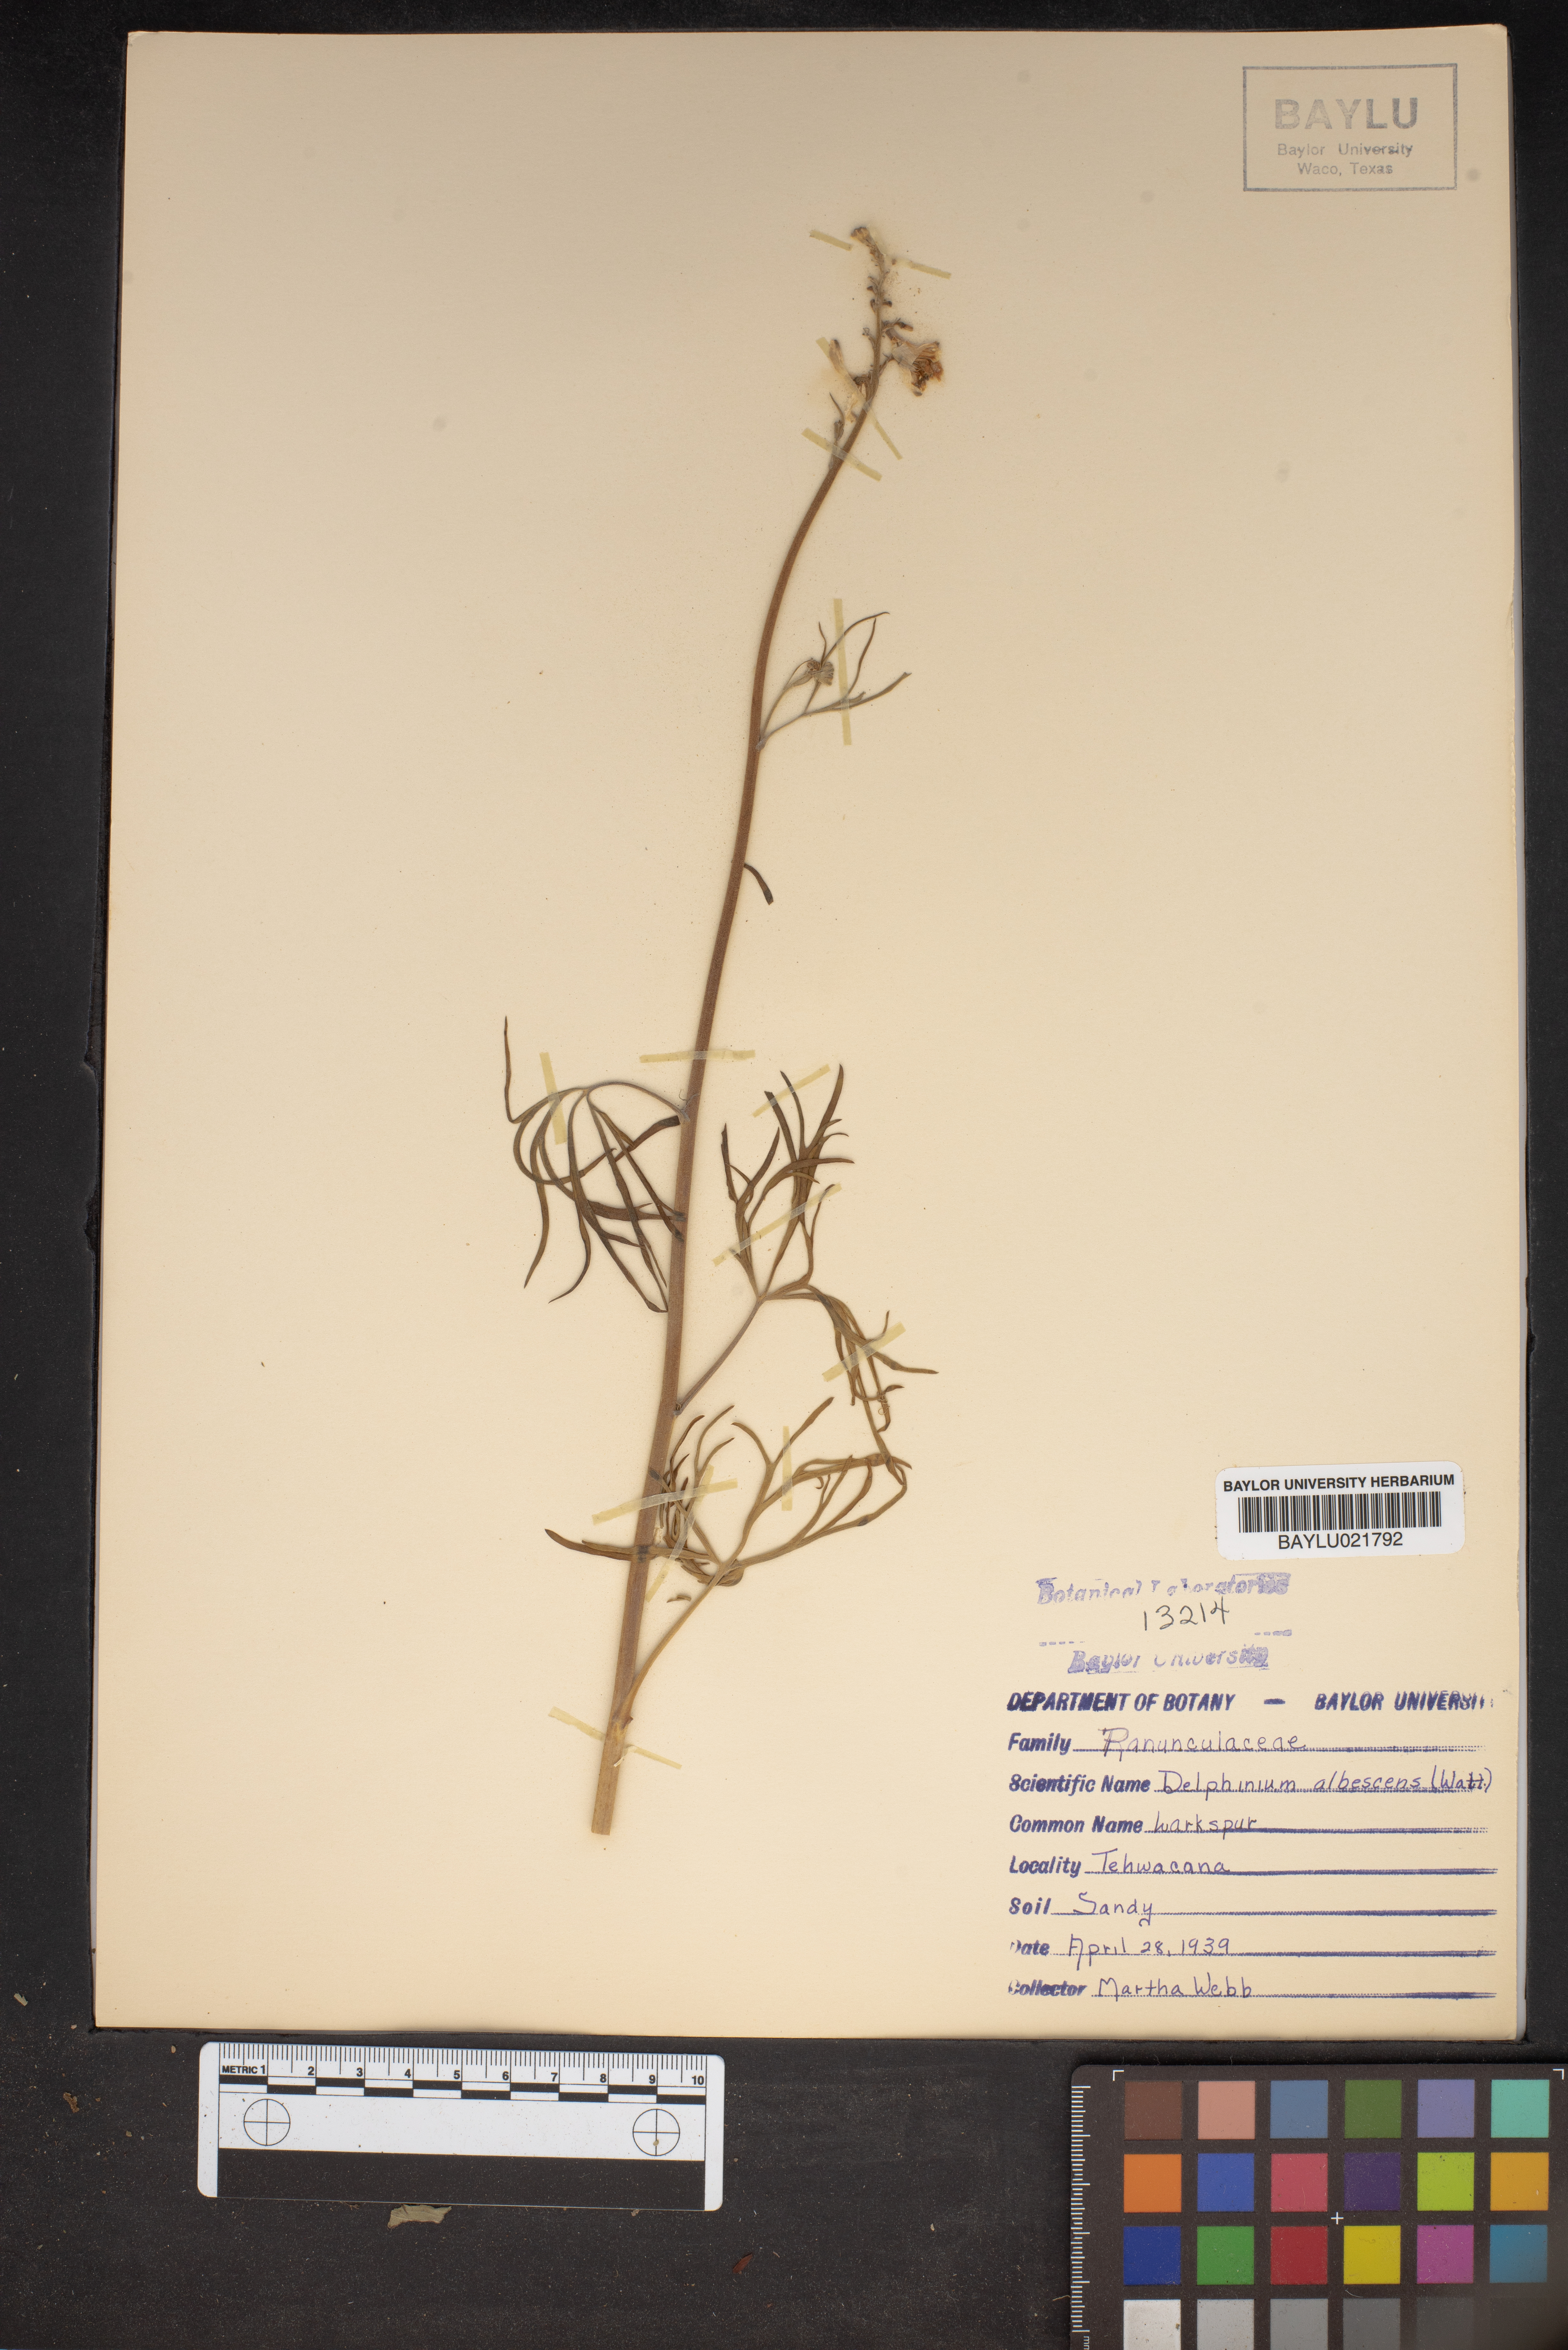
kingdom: Plantae
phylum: Tracheophyta
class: Magnoliopsida
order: Ranunculales
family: Ranunculaceae
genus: Delphinium
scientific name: Delphinium carolinianum
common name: Carolina larkspur
